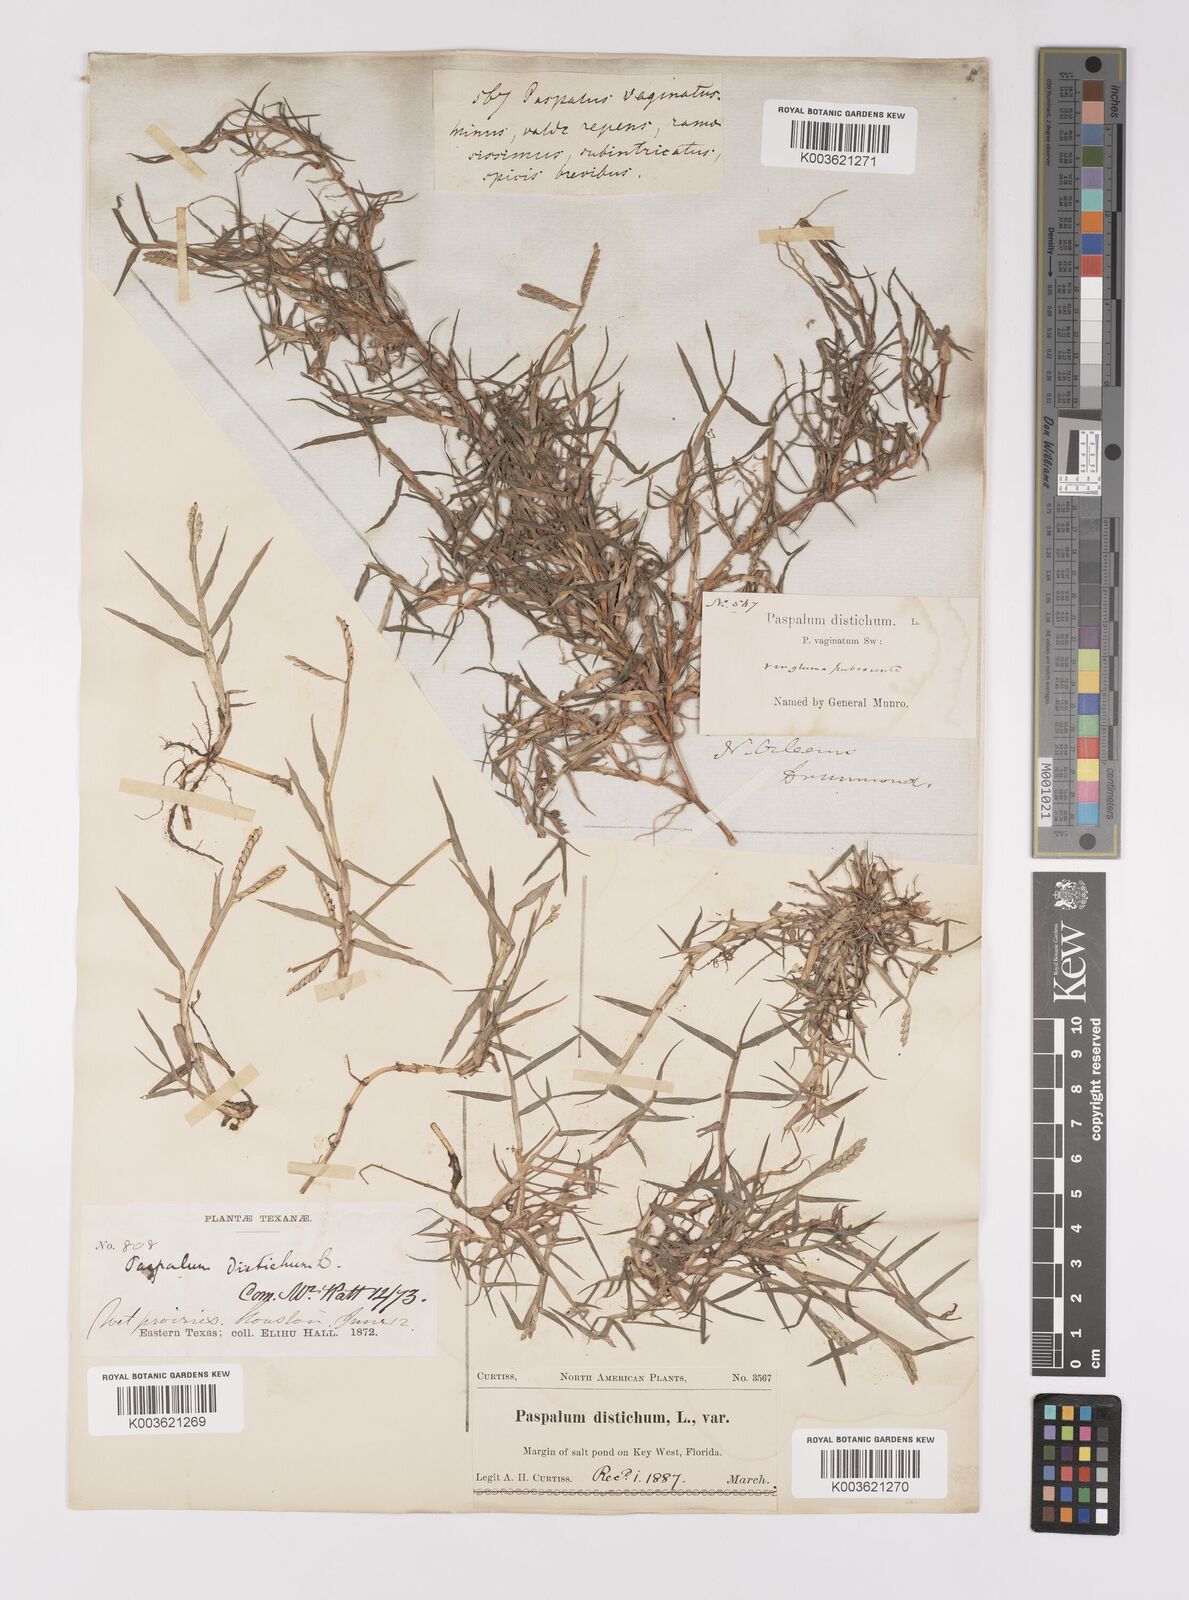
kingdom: Plantae
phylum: Tracheophyta
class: Liliopsida
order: Poales
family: Poaceae
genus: Paspalum
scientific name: Paspalum distichum
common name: Knotgrass
